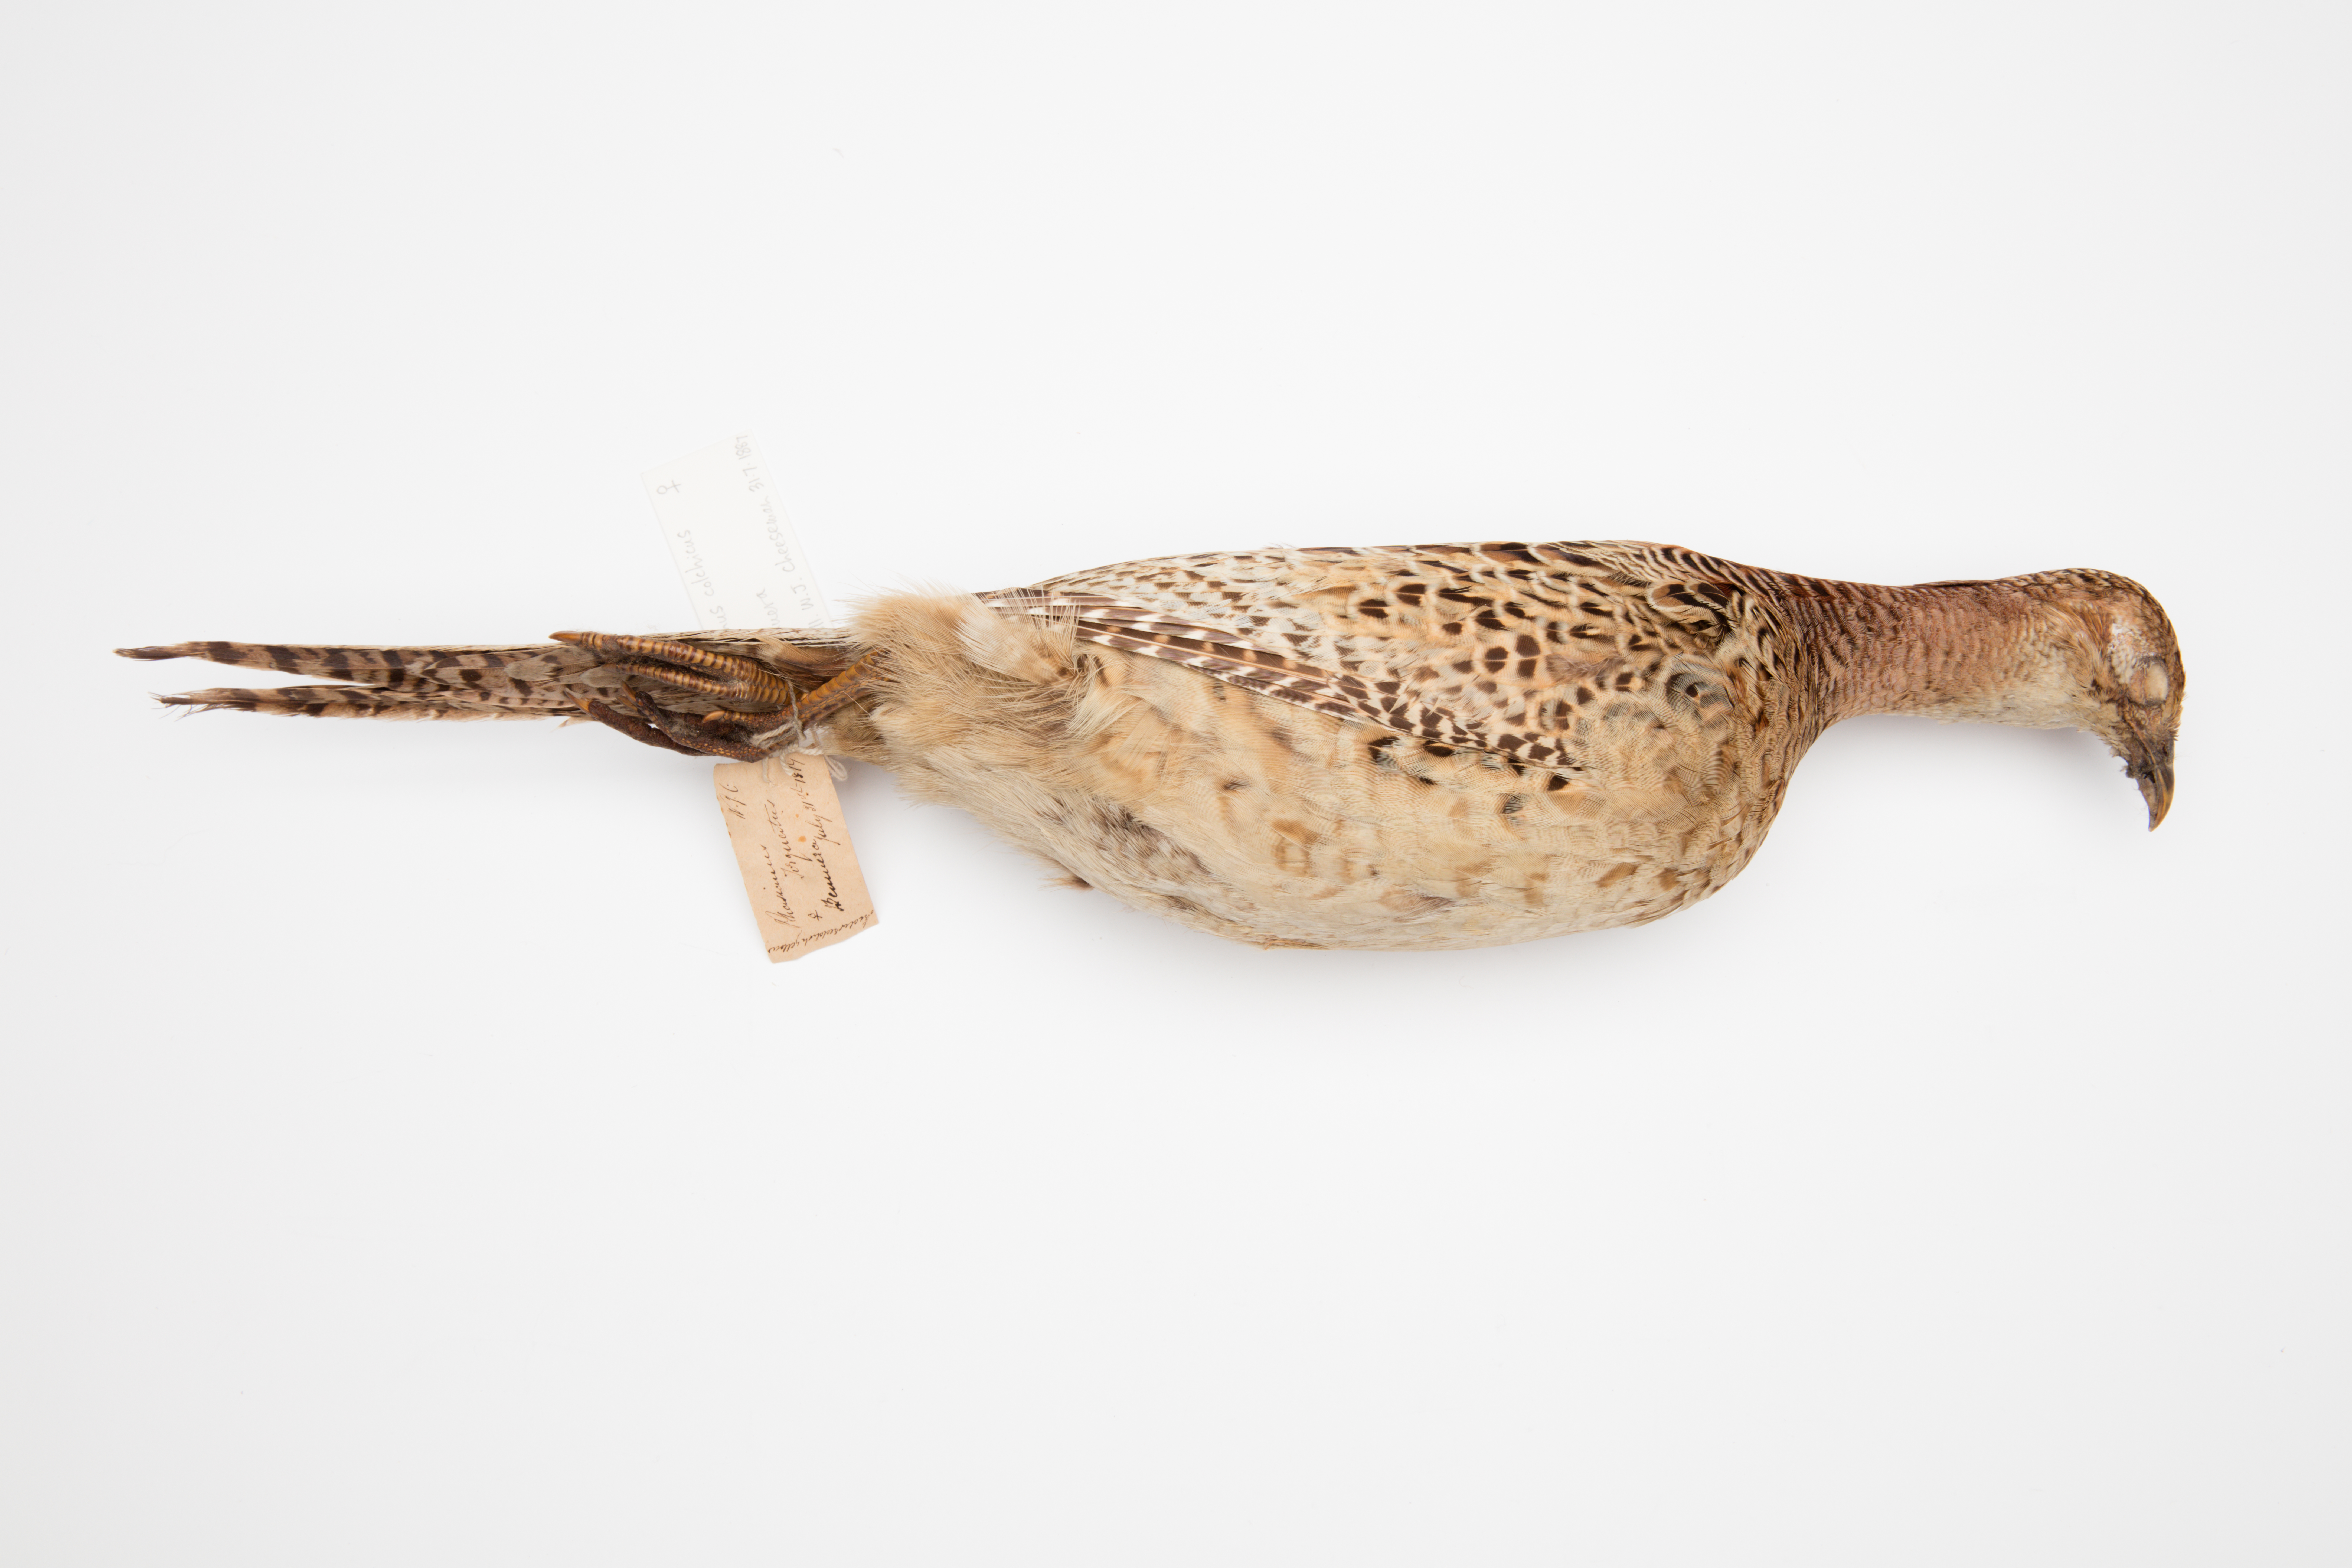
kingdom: Animalia
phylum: Chordata
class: Aves
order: Galliformes
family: Phasianidae
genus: Phasianus
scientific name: Phasianus colchicus
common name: Common pheasant
